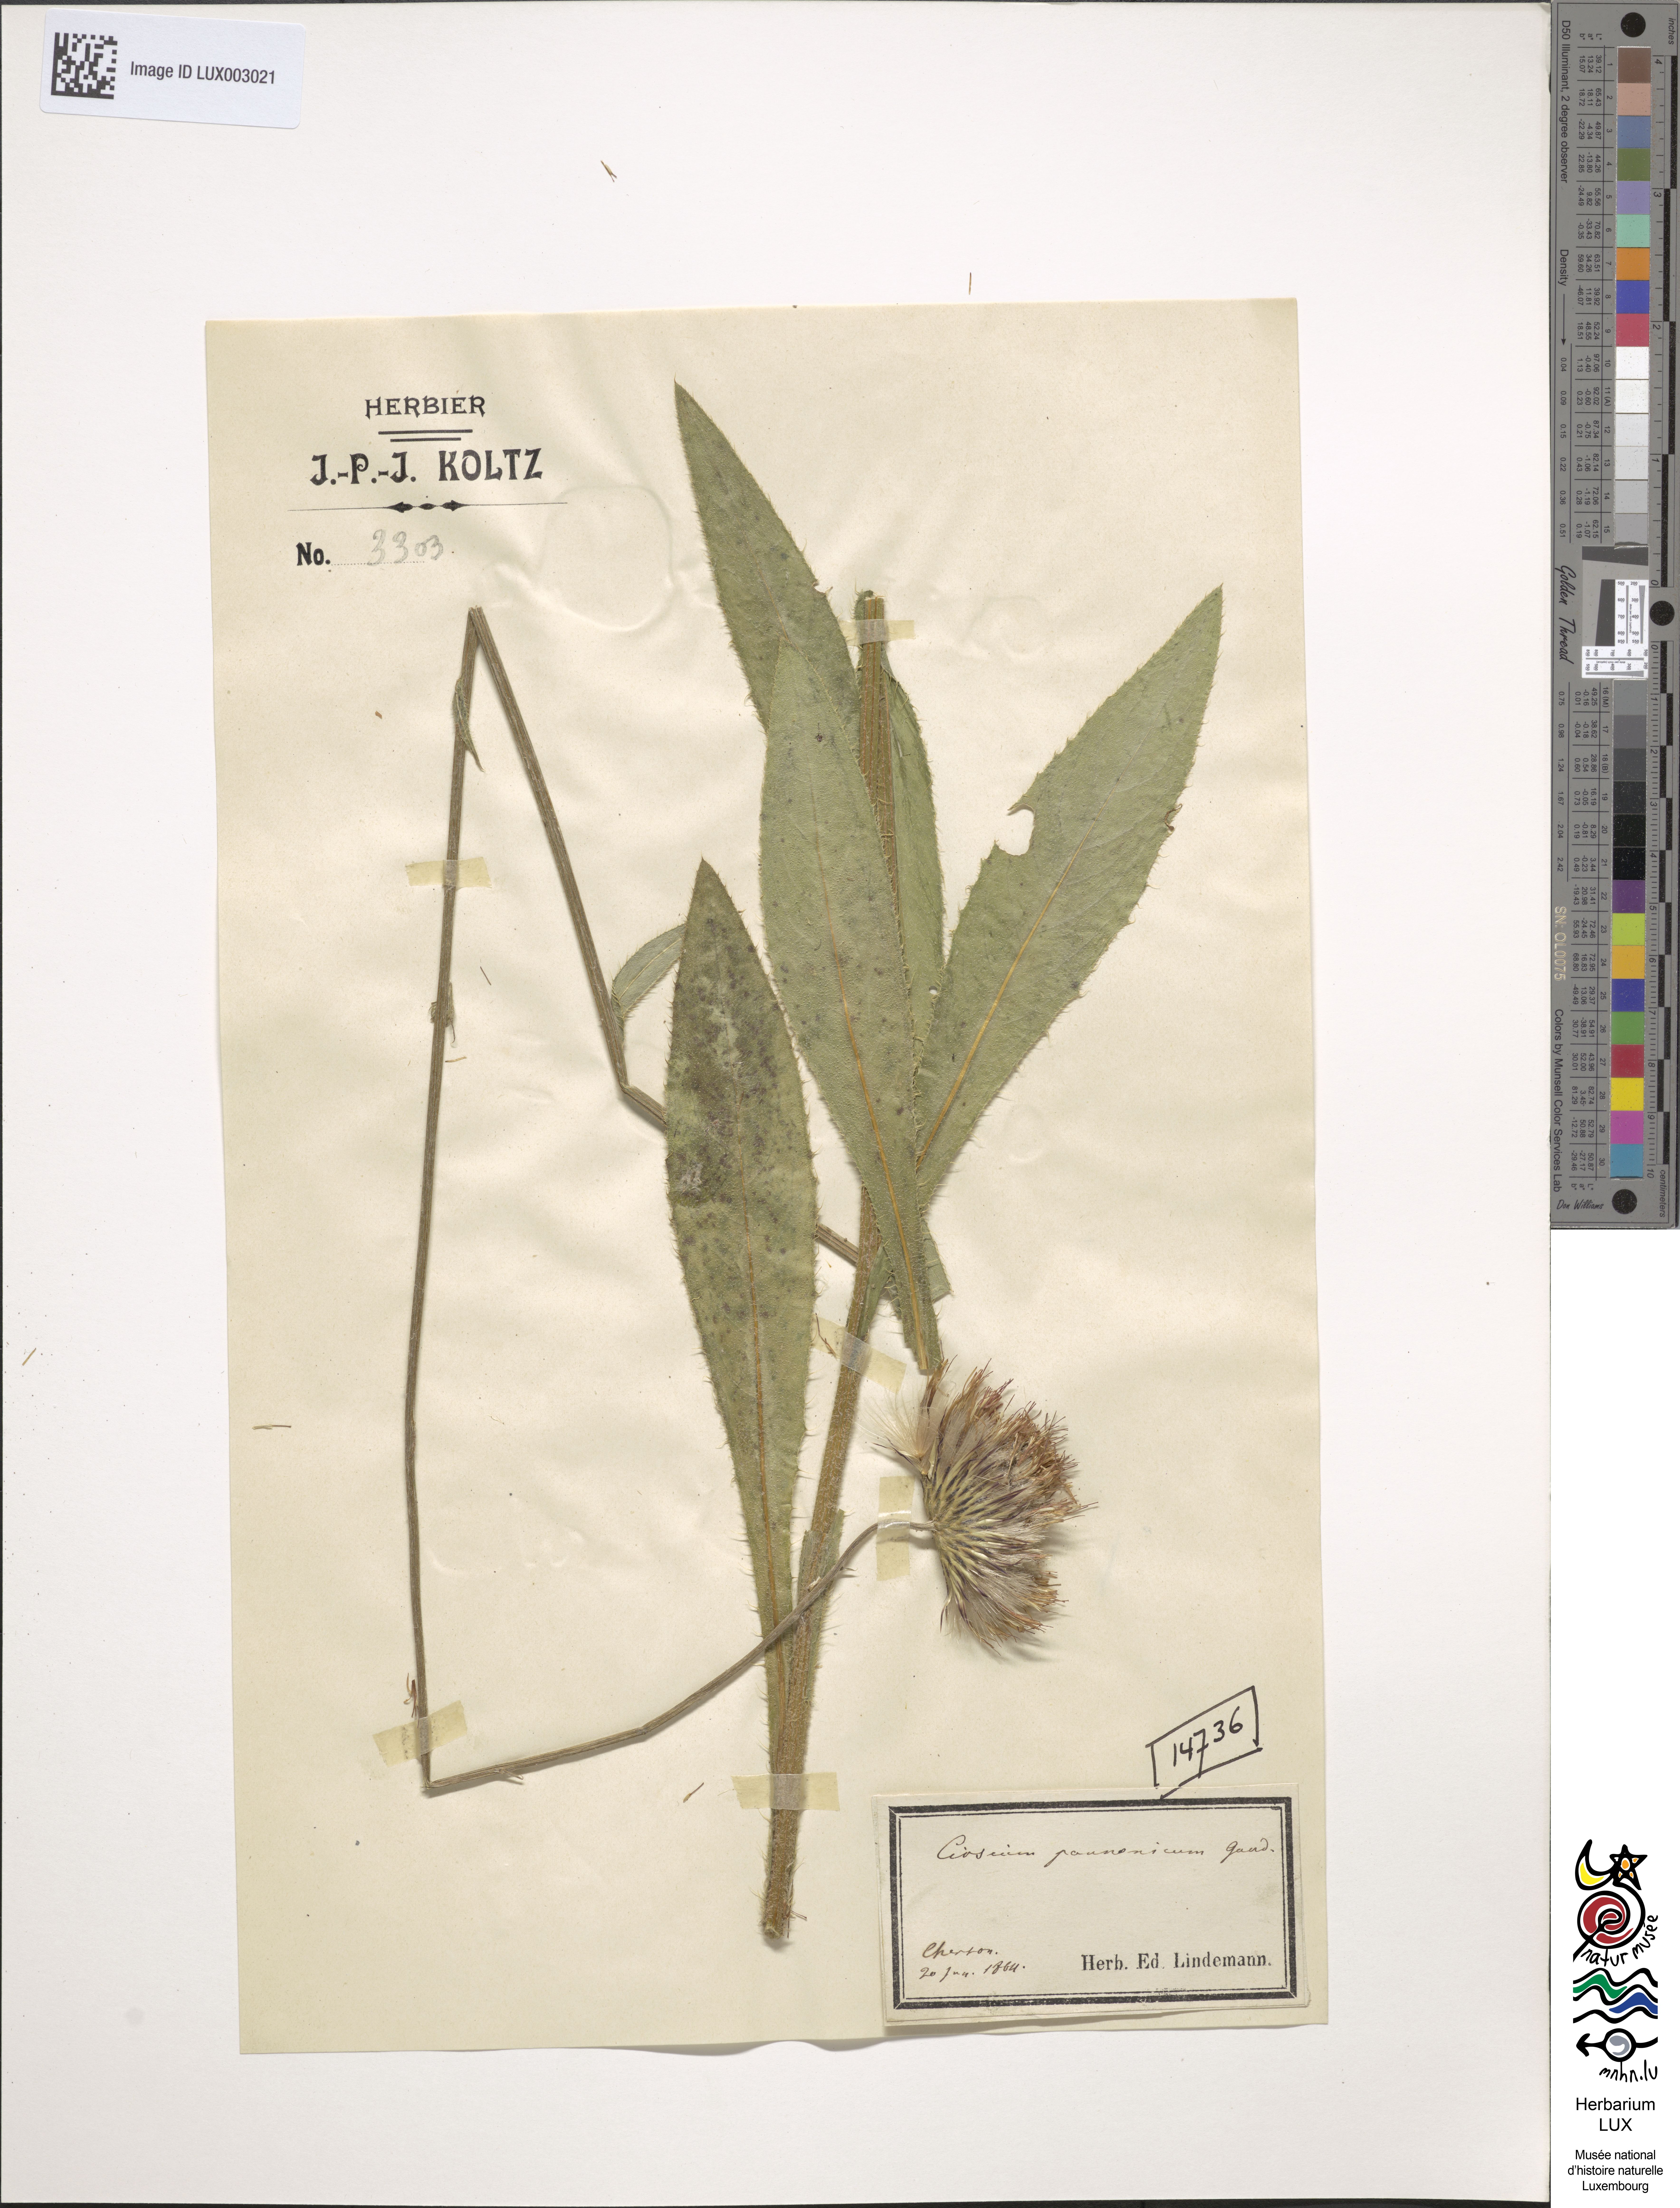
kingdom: Plantae
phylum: Tracheophyta
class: Magnoliopsida
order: Asterales
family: Asteraceae
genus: Cirsium
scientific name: Cirsium pannonicum
